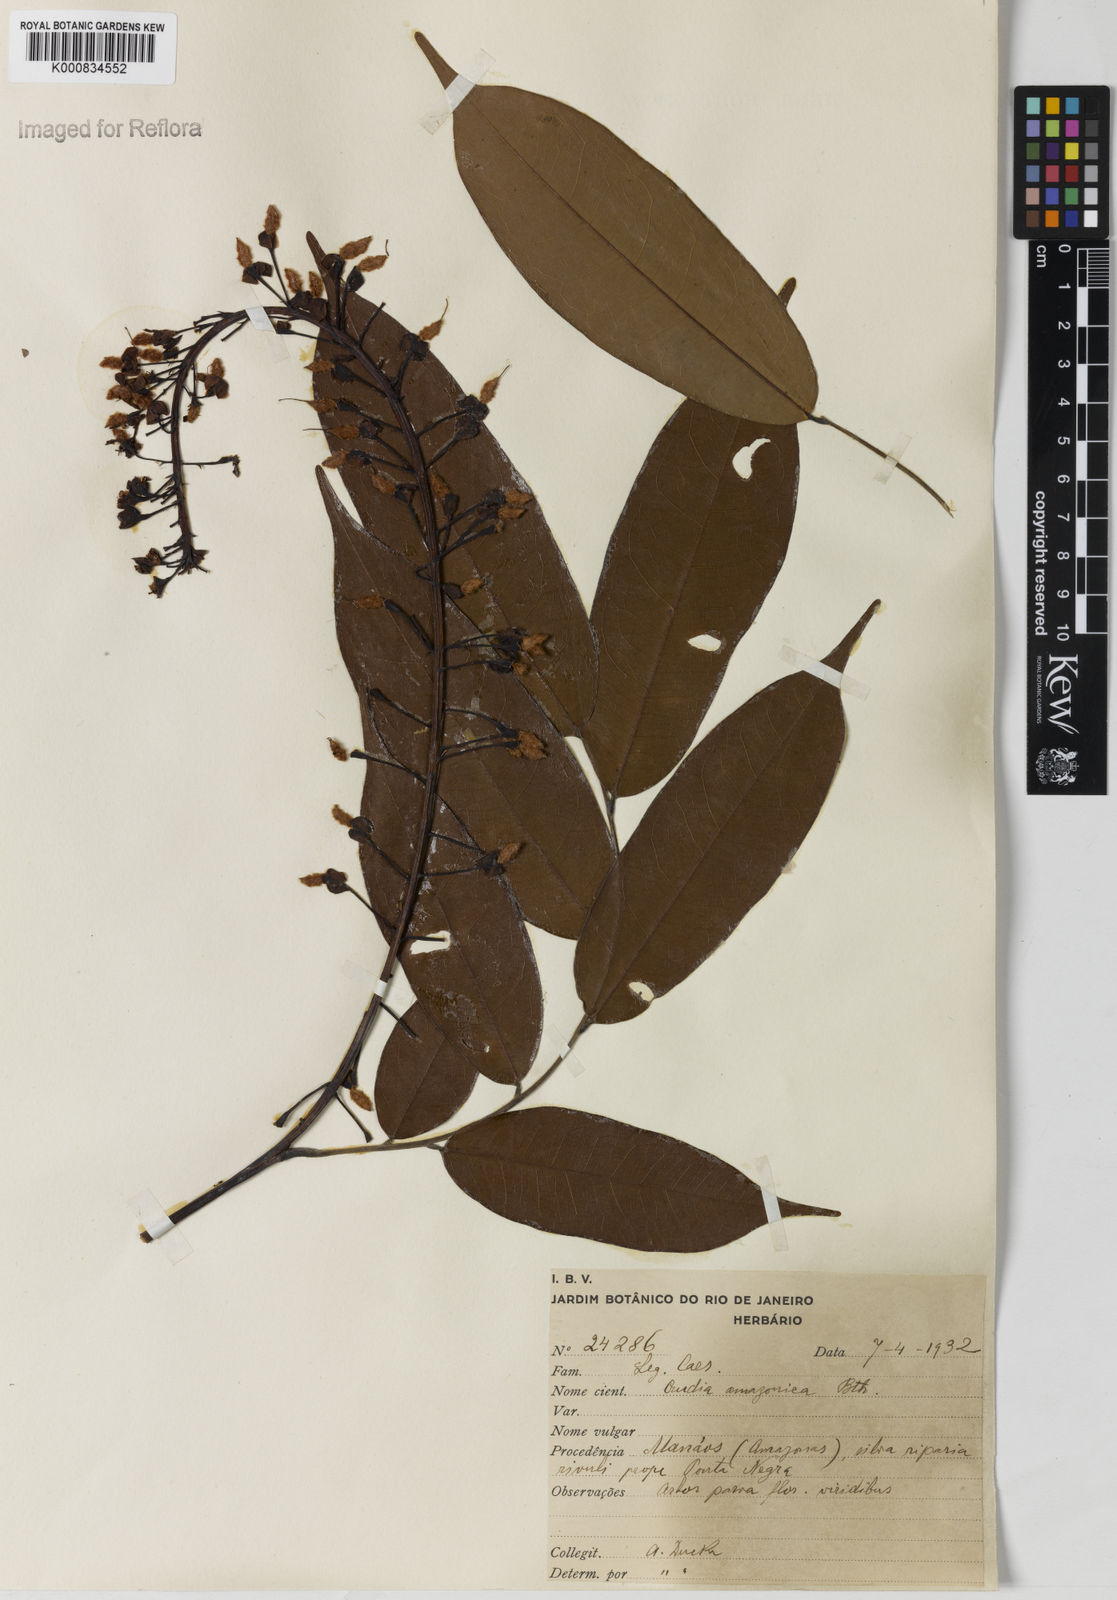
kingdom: Plantae
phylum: Tracheophyta
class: Magnoliopsida
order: Fabales
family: Fabaceae
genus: Crudia
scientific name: Crudia
